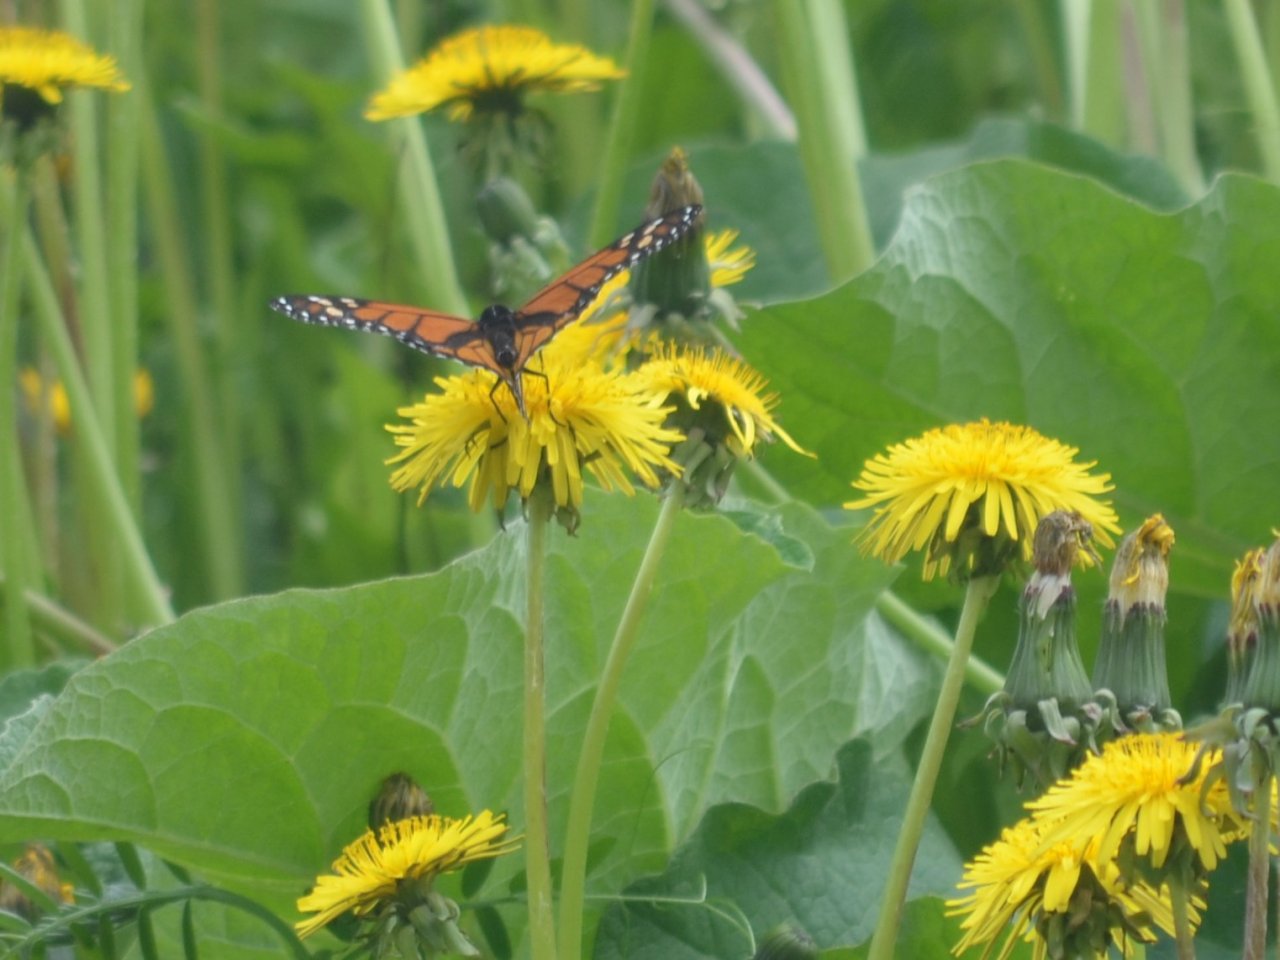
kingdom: Animalia
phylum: Arthropoda
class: Insecta
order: Lepidoptera
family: Nymphalidae
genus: Danaus
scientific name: Danaus plexippus
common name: Monarch
